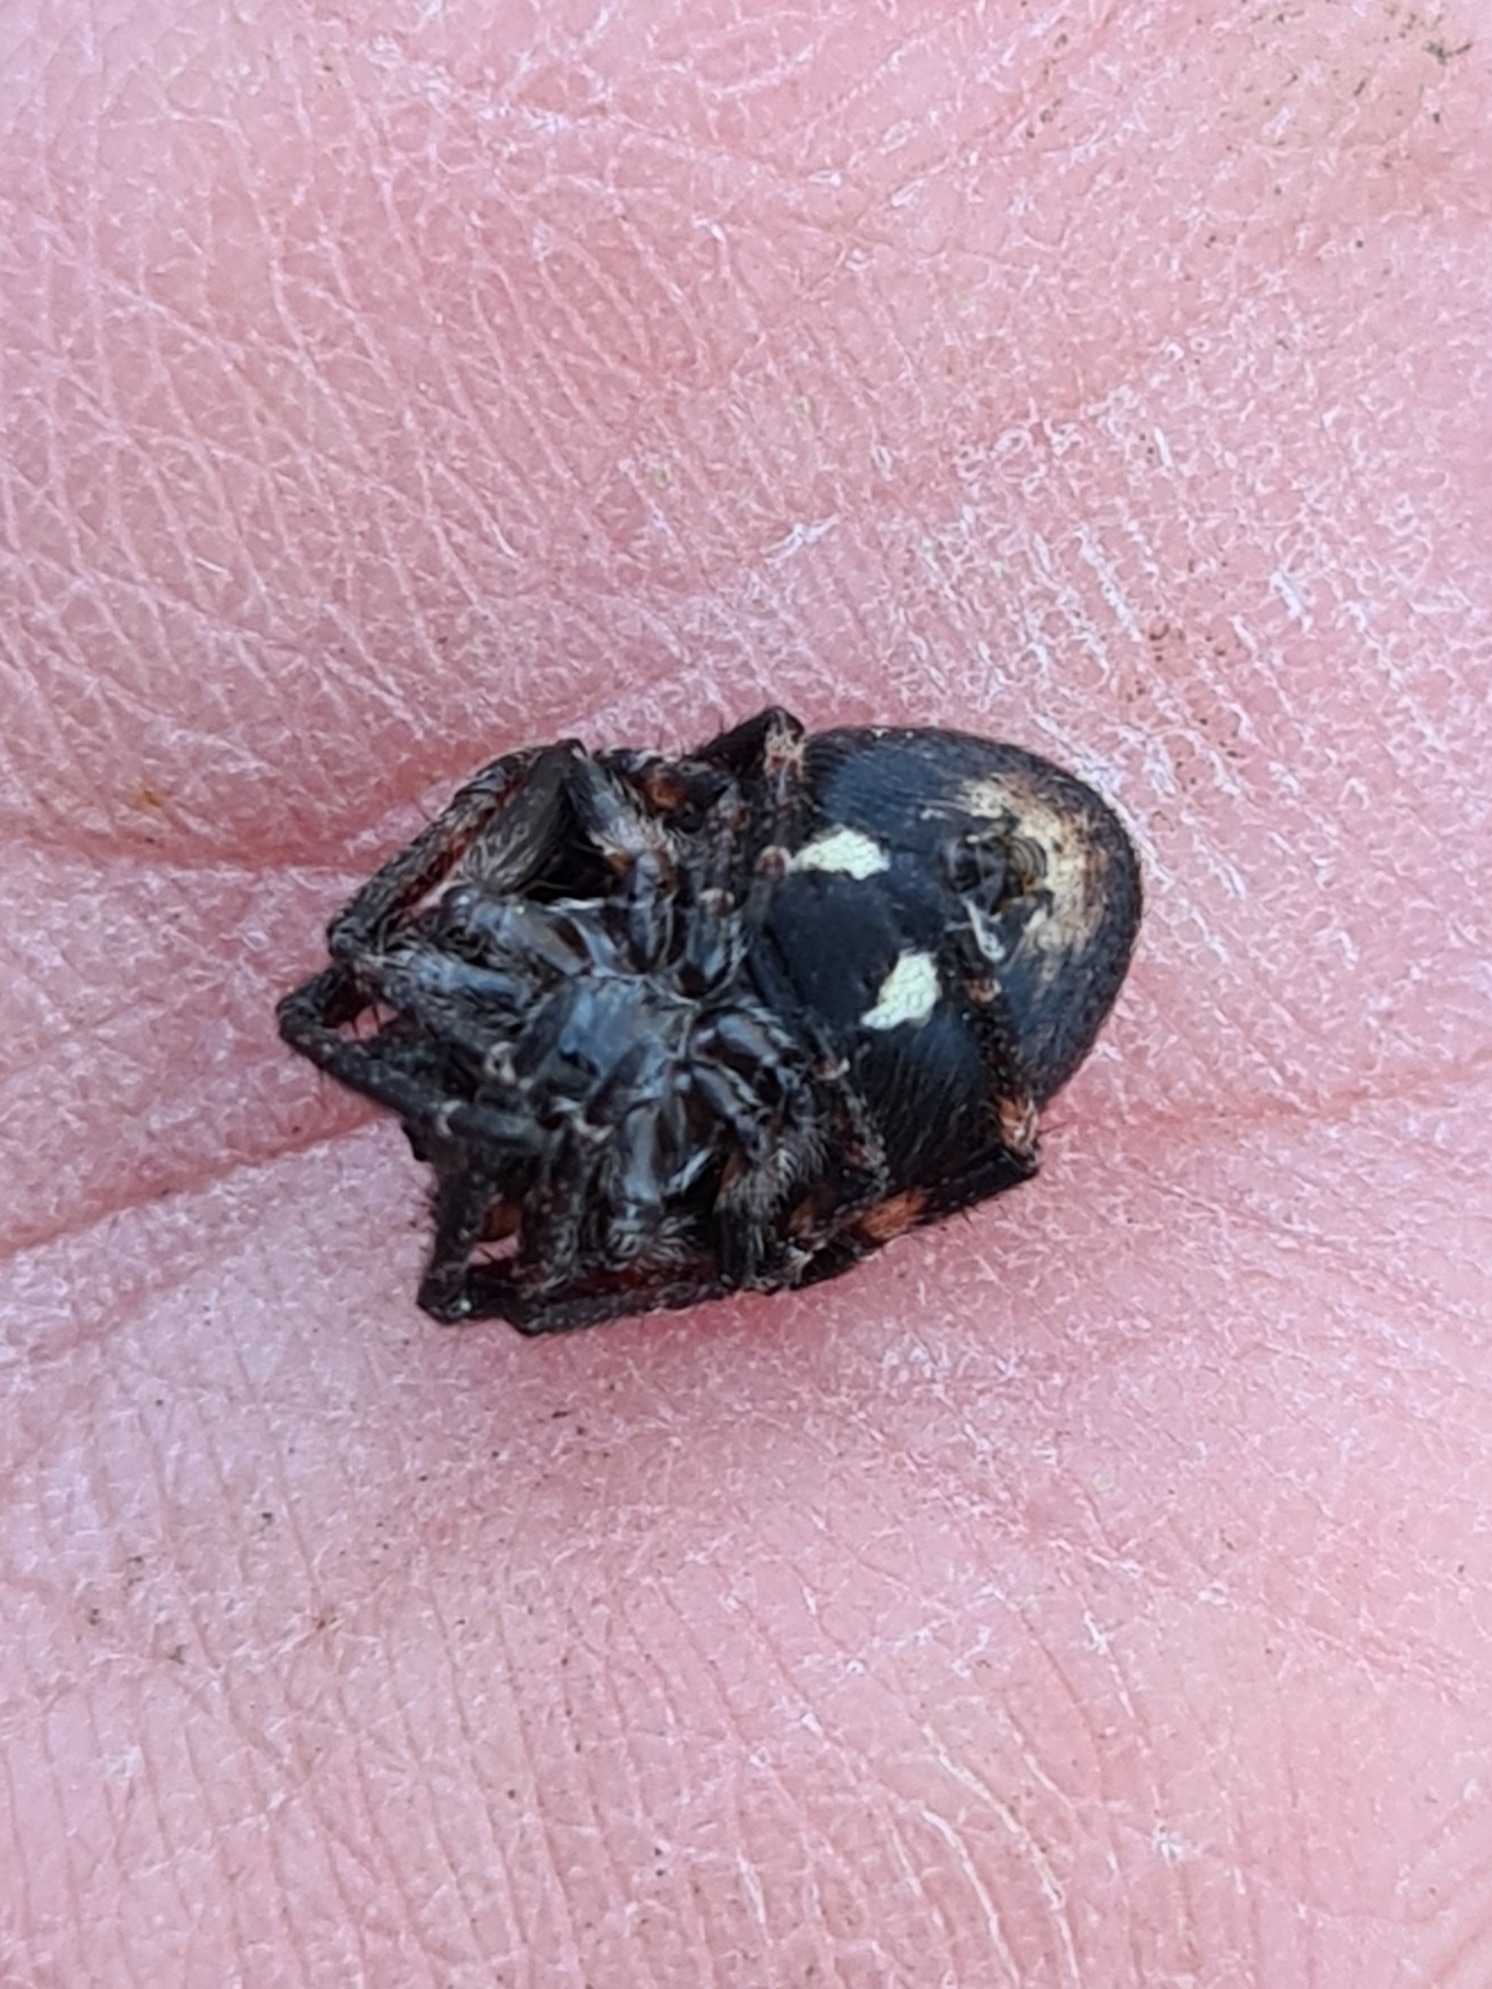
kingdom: Animalia
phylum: Arthropoda
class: Arachnida
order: Araneae
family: Araneidae
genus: Nuctenea
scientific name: Nuctenea umbratica
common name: Flad hjulspinder
